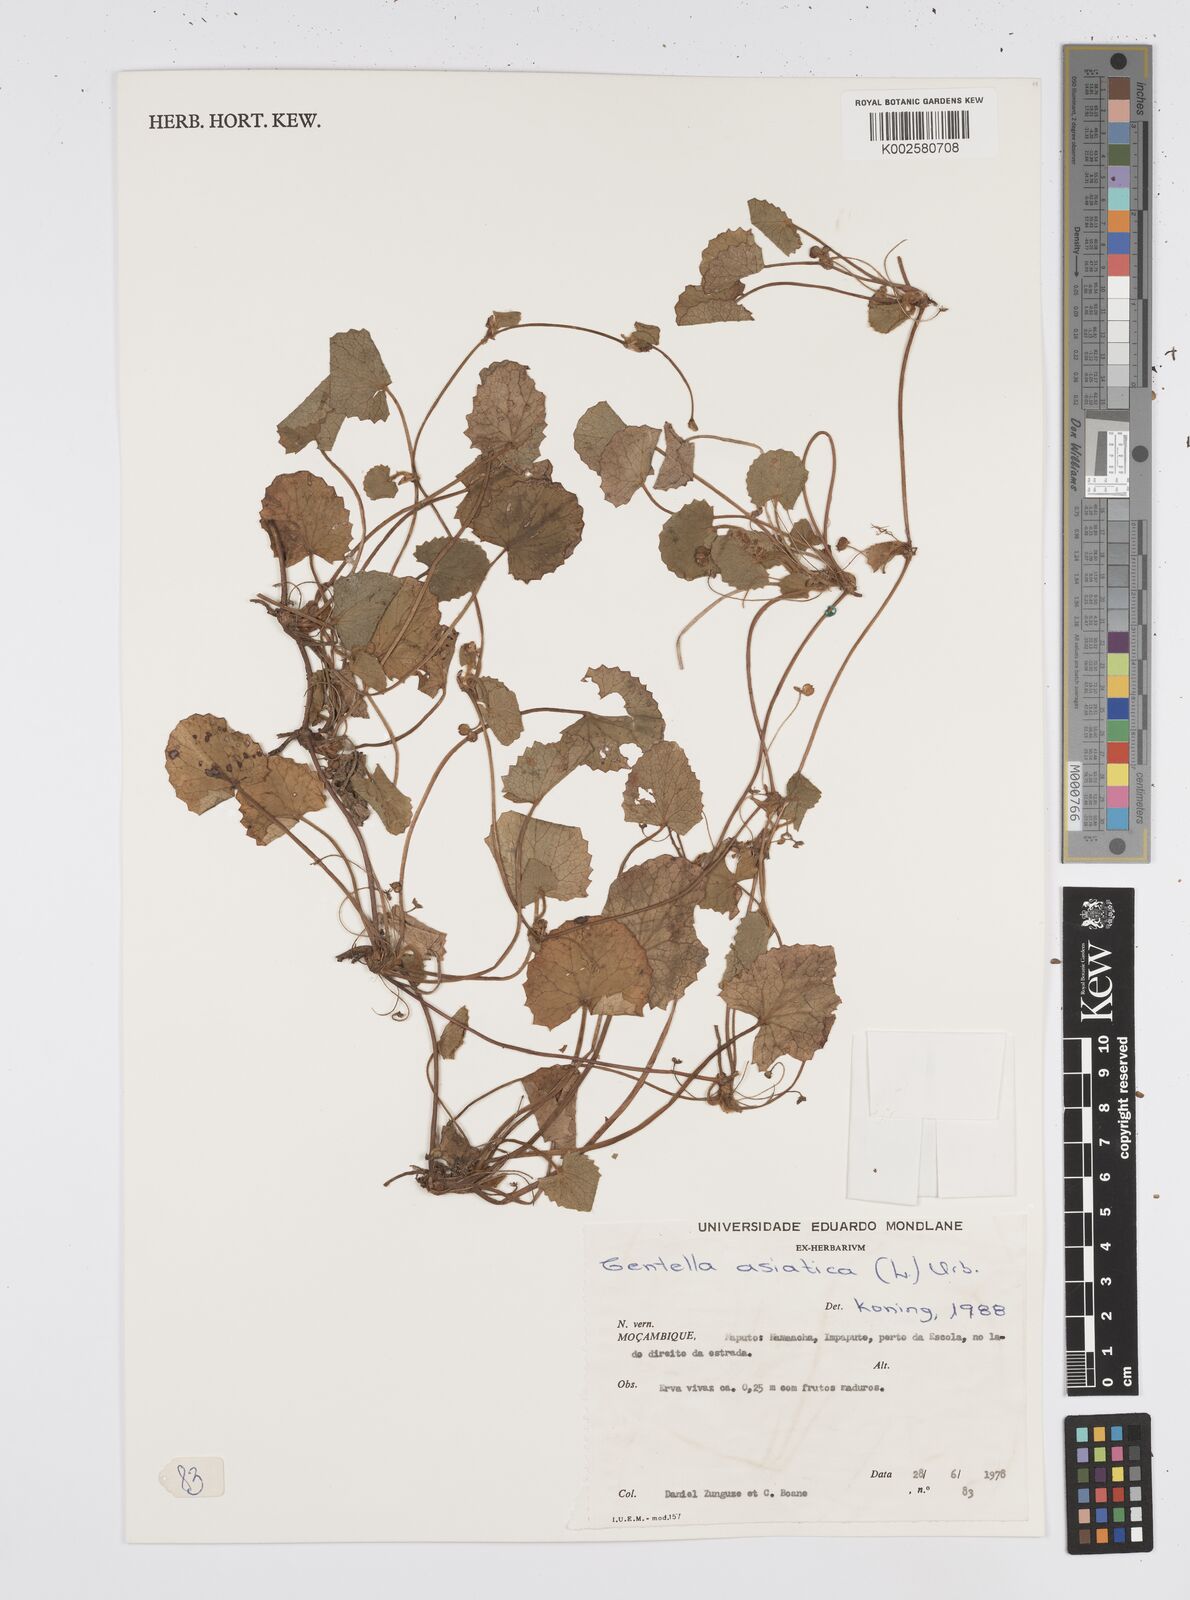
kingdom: Plantae
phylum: Tracheophyta
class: Magnoliopsida
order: Apiales
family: Apiaceae
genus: Centella
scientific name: Centella asiatica
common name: Spadeleaf
